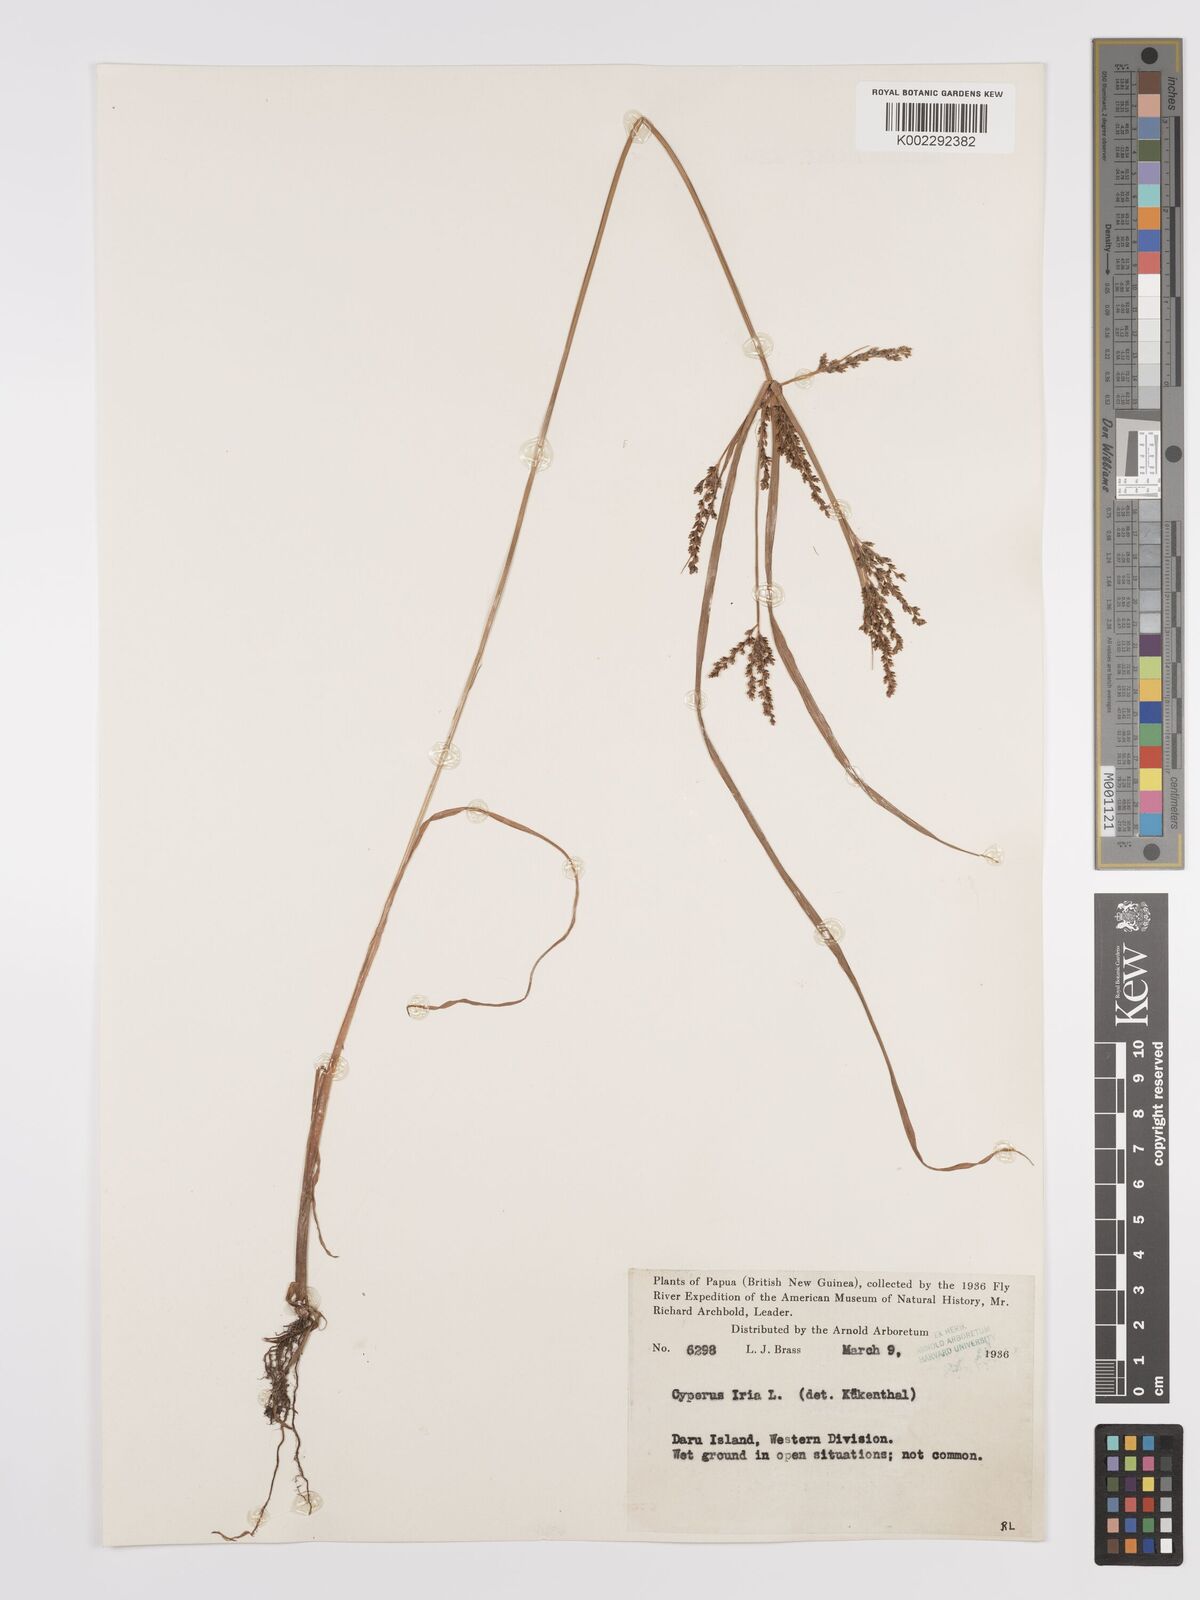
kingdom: Plantae
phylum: Tracheophyta
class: Liliopsida
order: Poales
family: Cyperaceae
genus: Cyperus
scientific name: Cyperus iria
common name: Ricefield flatsedge
